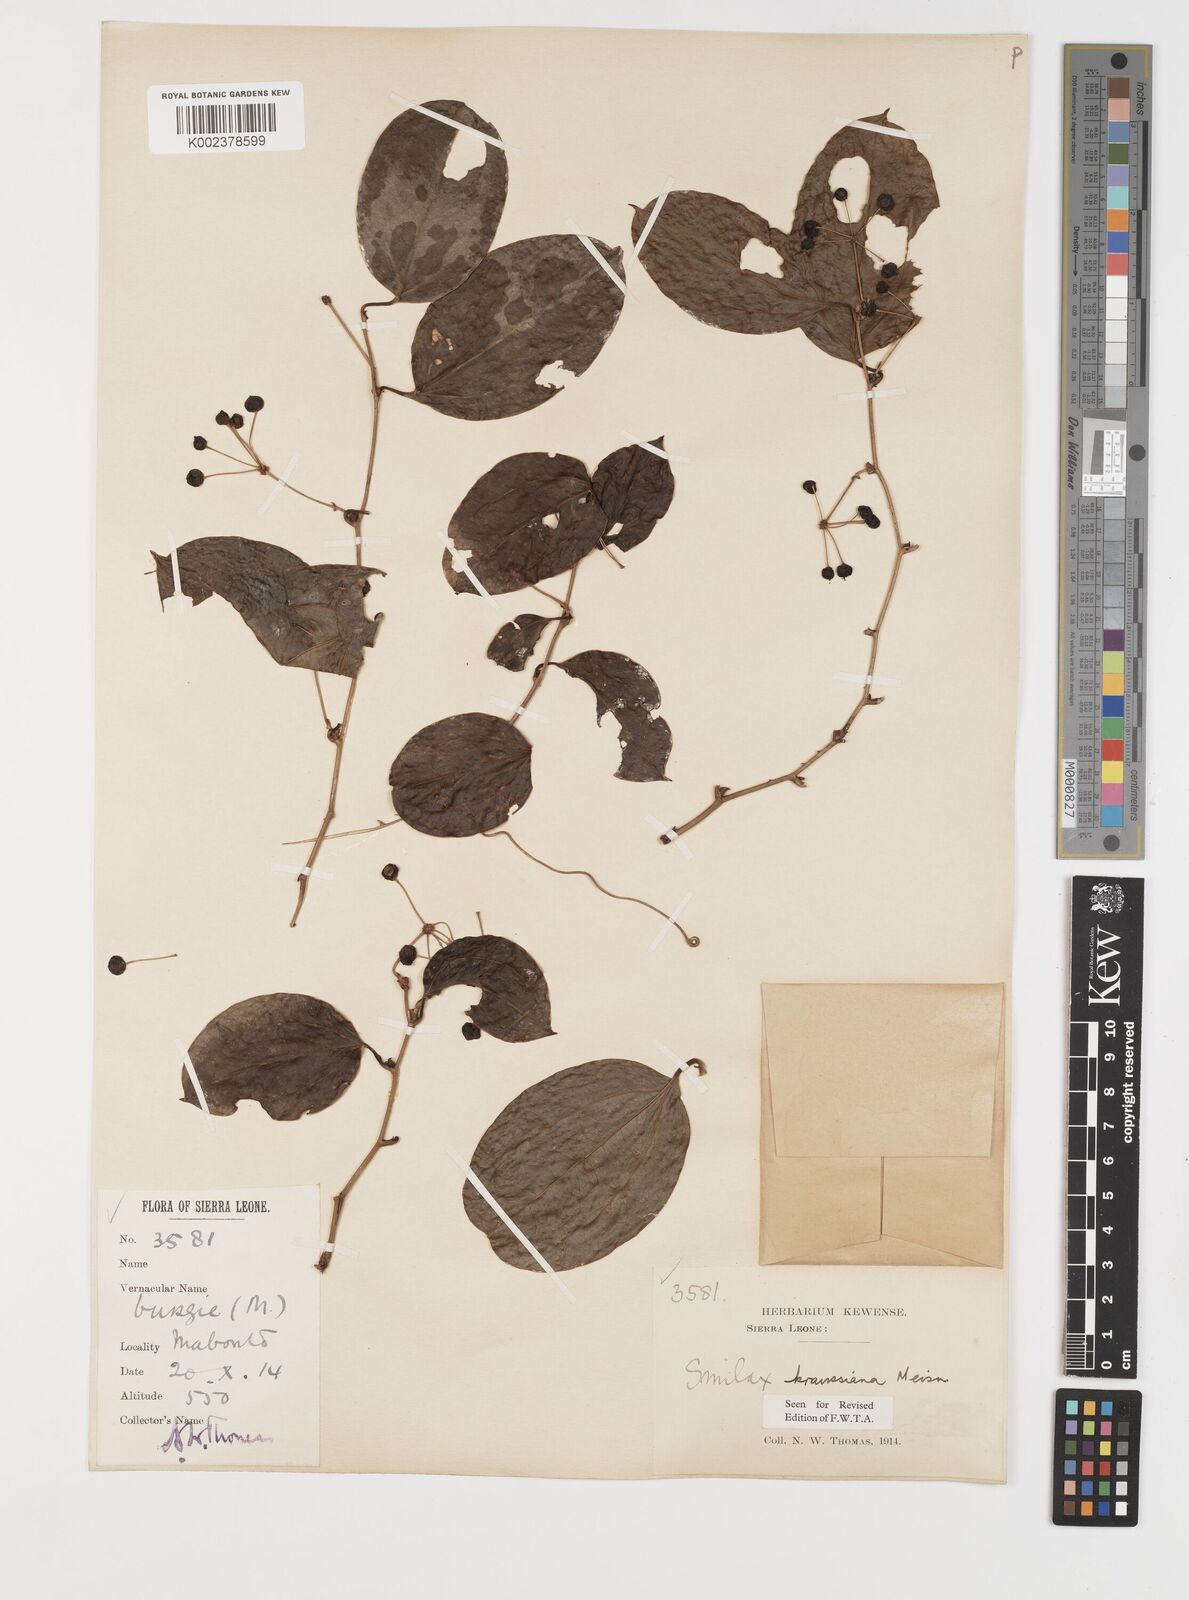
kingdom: Plantae
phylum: Tracheophyta
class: Liliopsida
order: Liliales
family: Smilacaceae
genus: Smilax
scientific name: Smilax anceps
